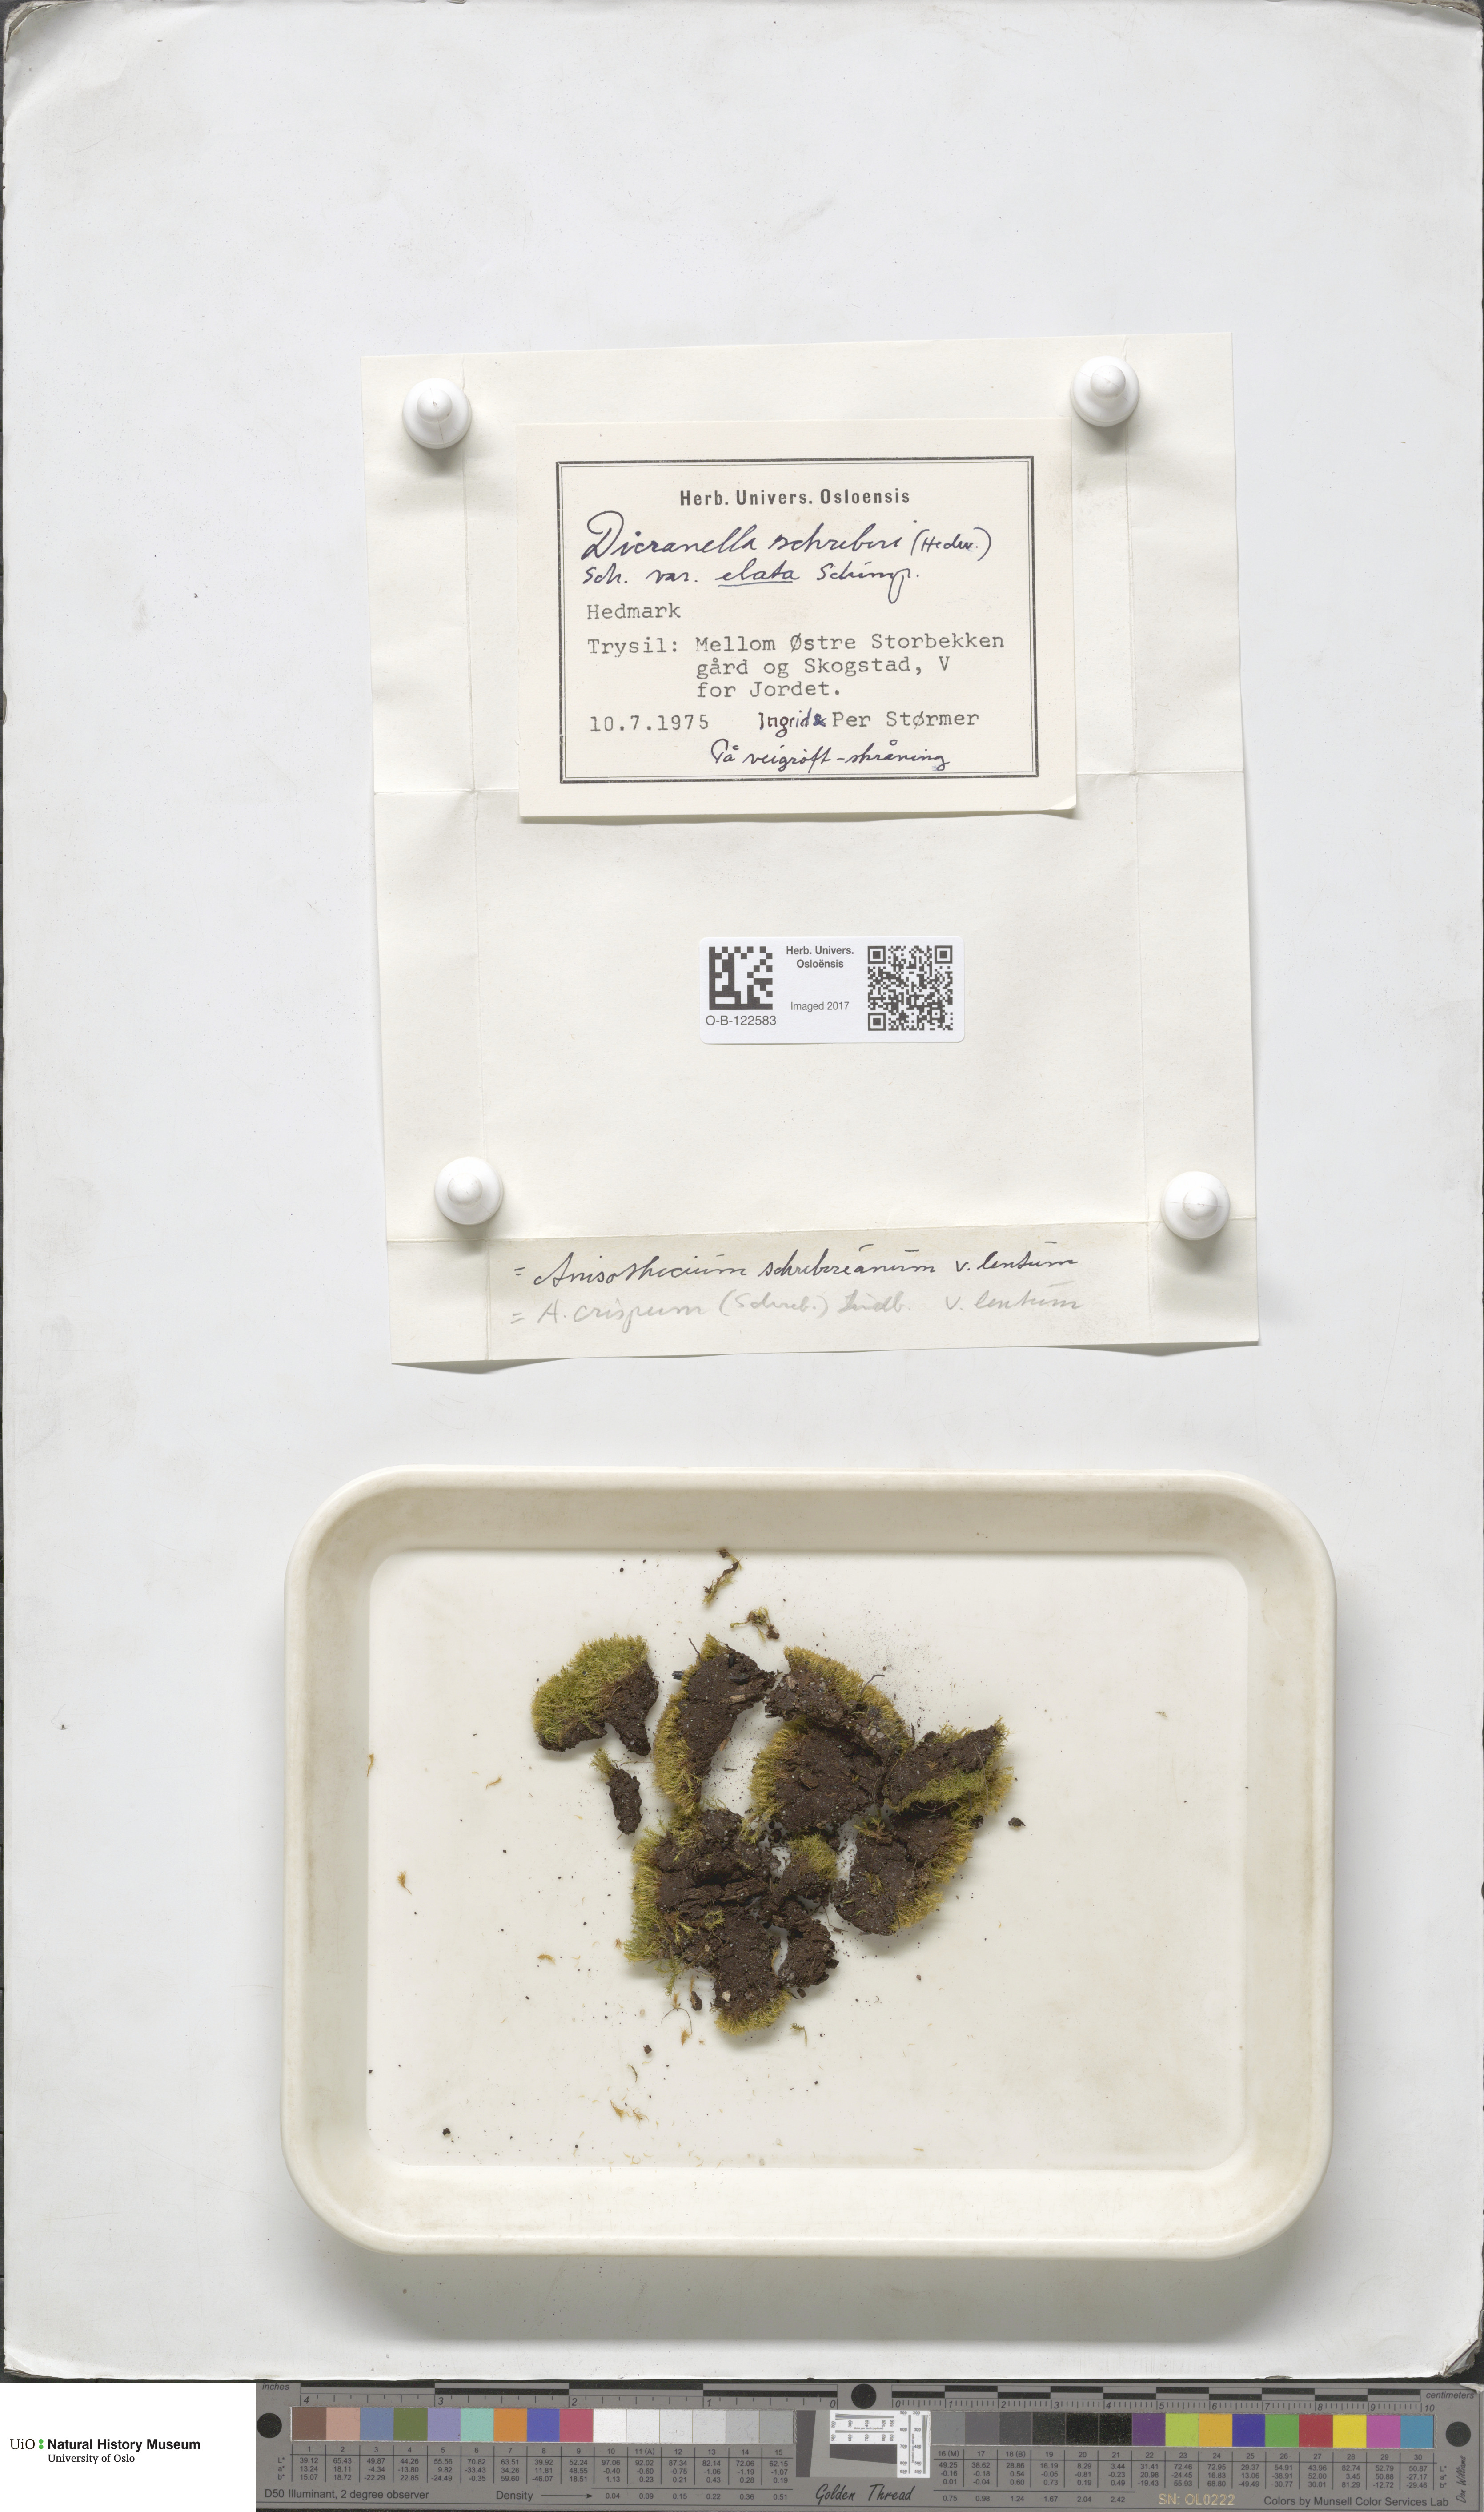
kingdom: Plantae
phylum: Bryophyta
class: Bryopsida
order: Dicranales
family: Dicranellaceae
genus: Dicranella
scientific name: Dicranella schreberiana
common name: Schreber's forklet moss
